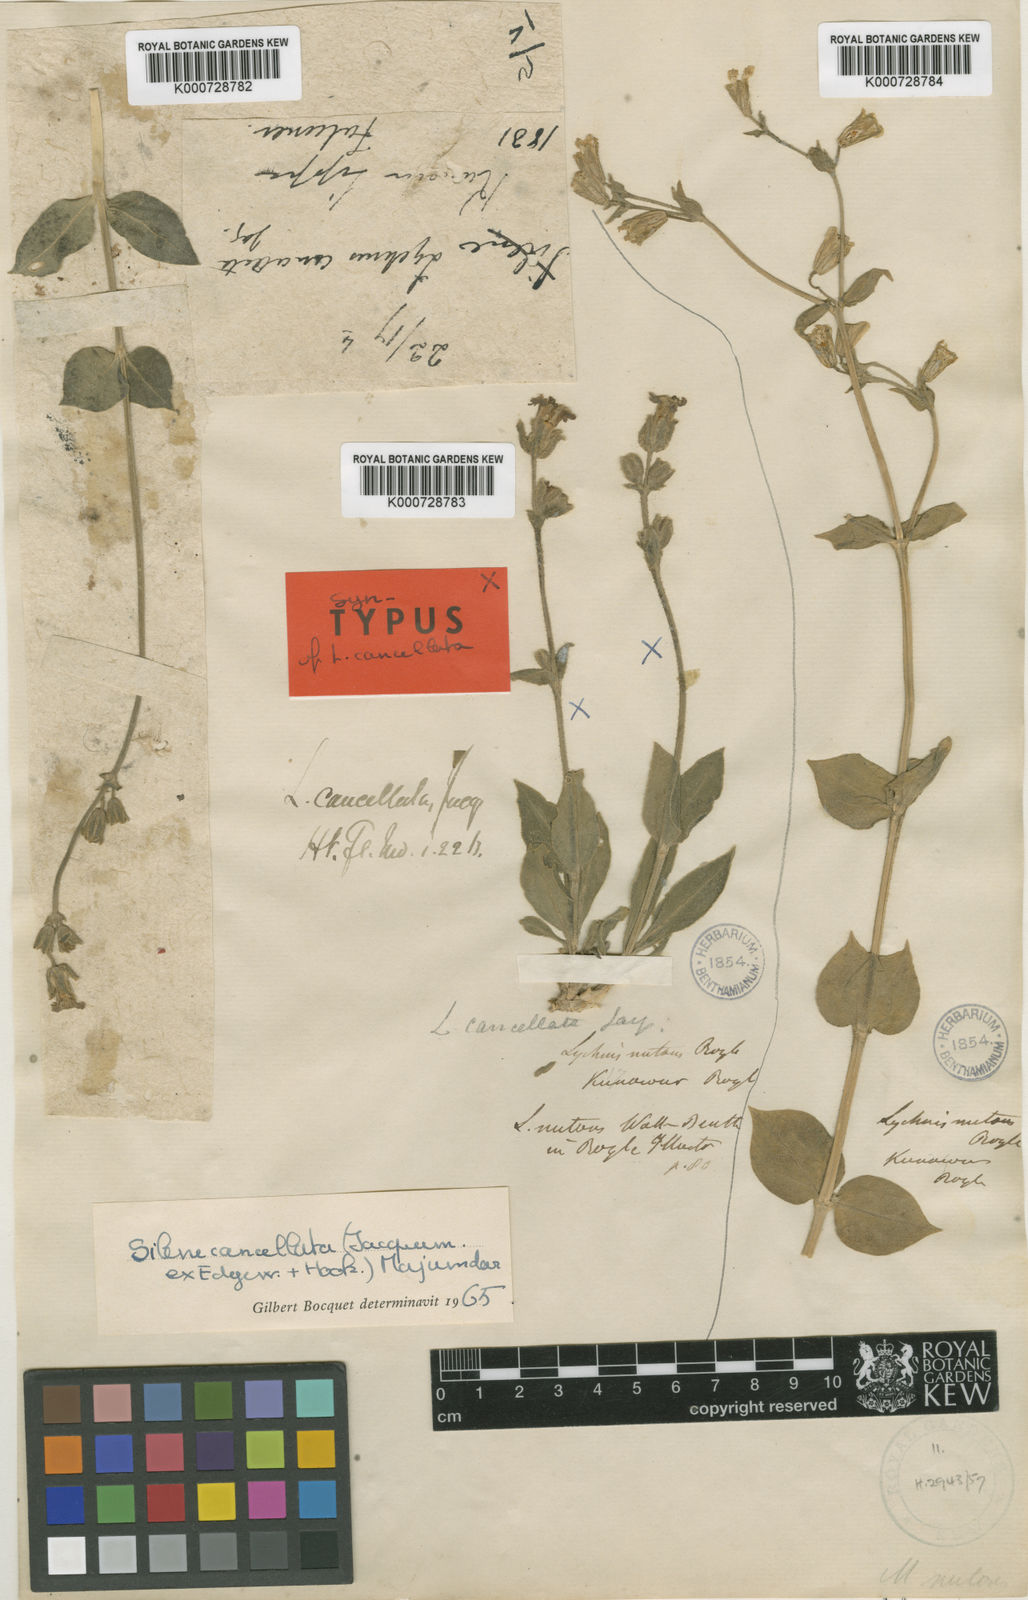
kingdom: Plantae
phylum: Tracheophyta
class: Magnoliopsida
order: Caryophyllales
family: Caryophyllaceae
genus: Silene
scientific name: Silene cancellata
